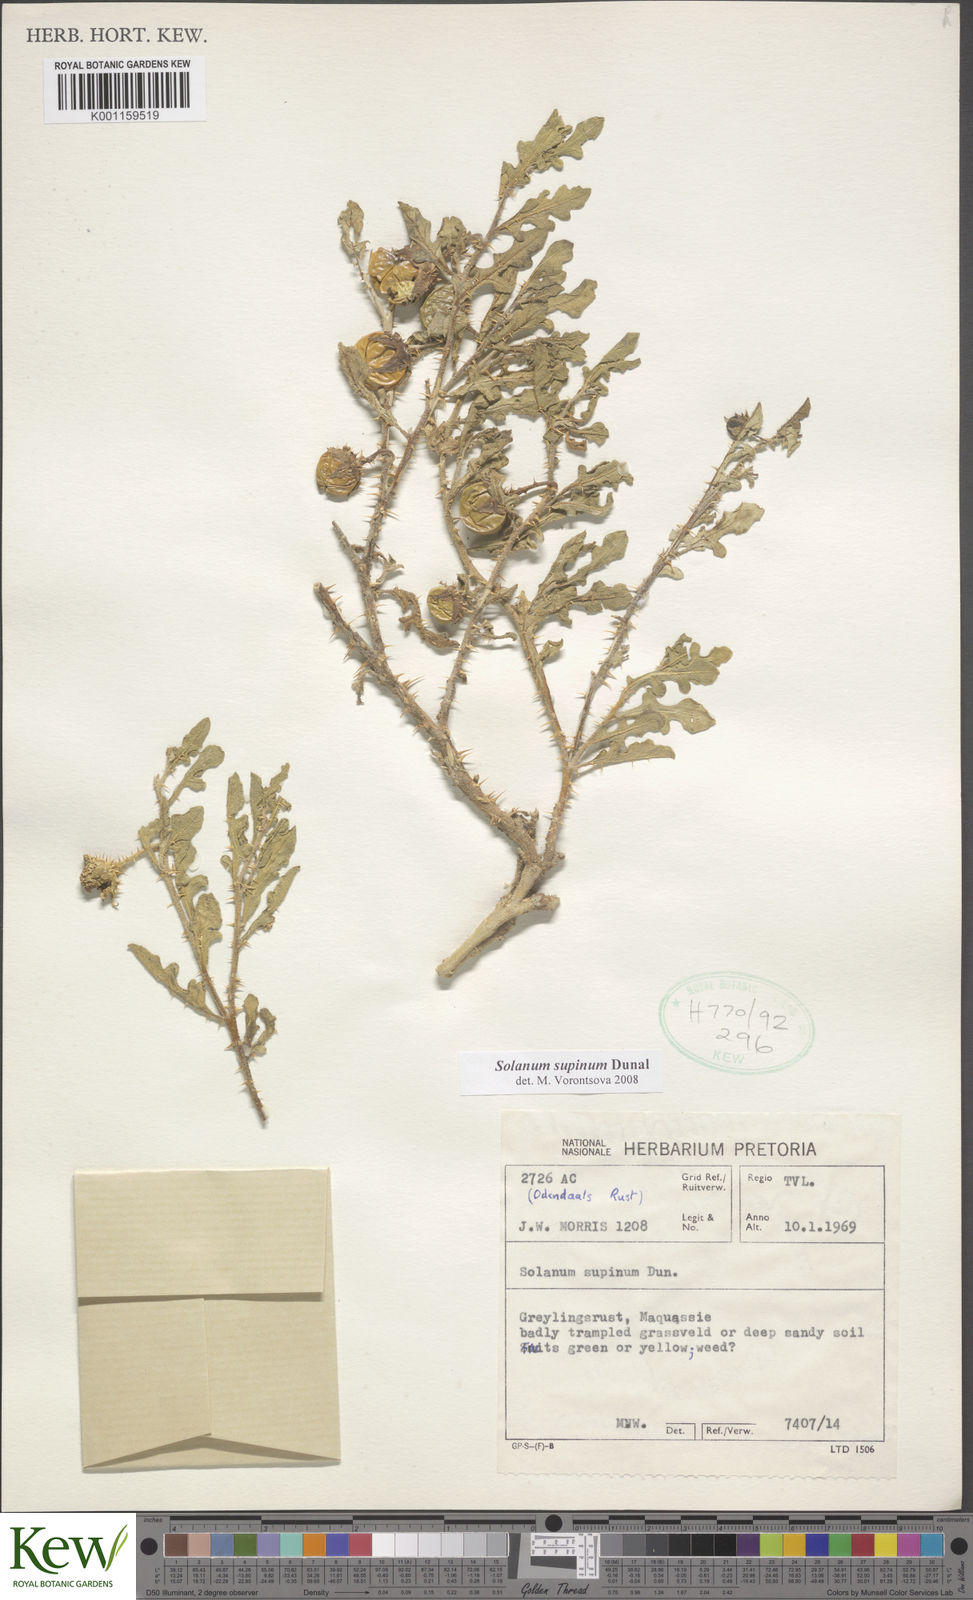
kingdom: Plantae
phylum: Tracheophyta
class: Magnoliopsida
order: Solanales
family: Solanaceae
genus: Solanum
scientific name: Solanum supinum
